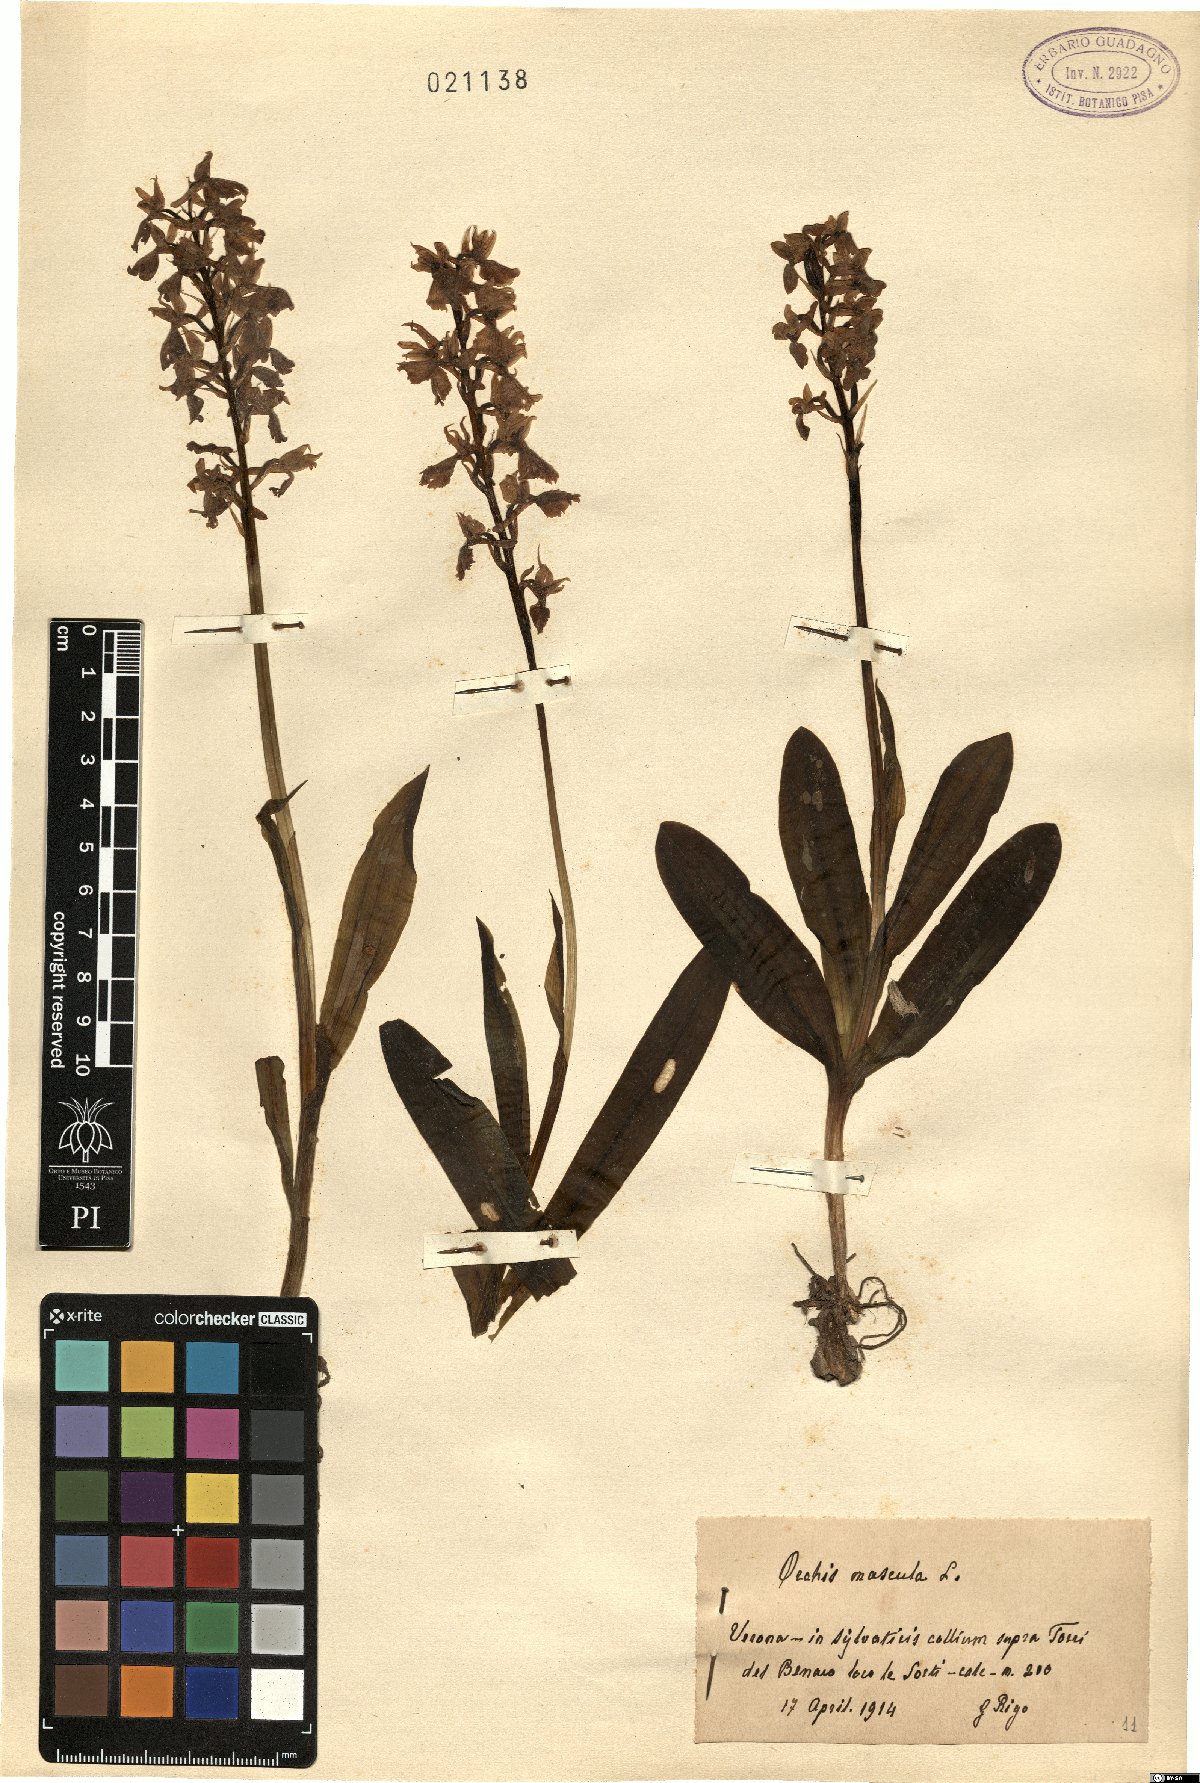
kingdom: Plantae
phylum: Tracheophyta
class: Liliopsida
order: Asparagales
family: Orchidaceae
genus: Orchis
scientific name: Orchis mascula
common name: Early-purple orchid
